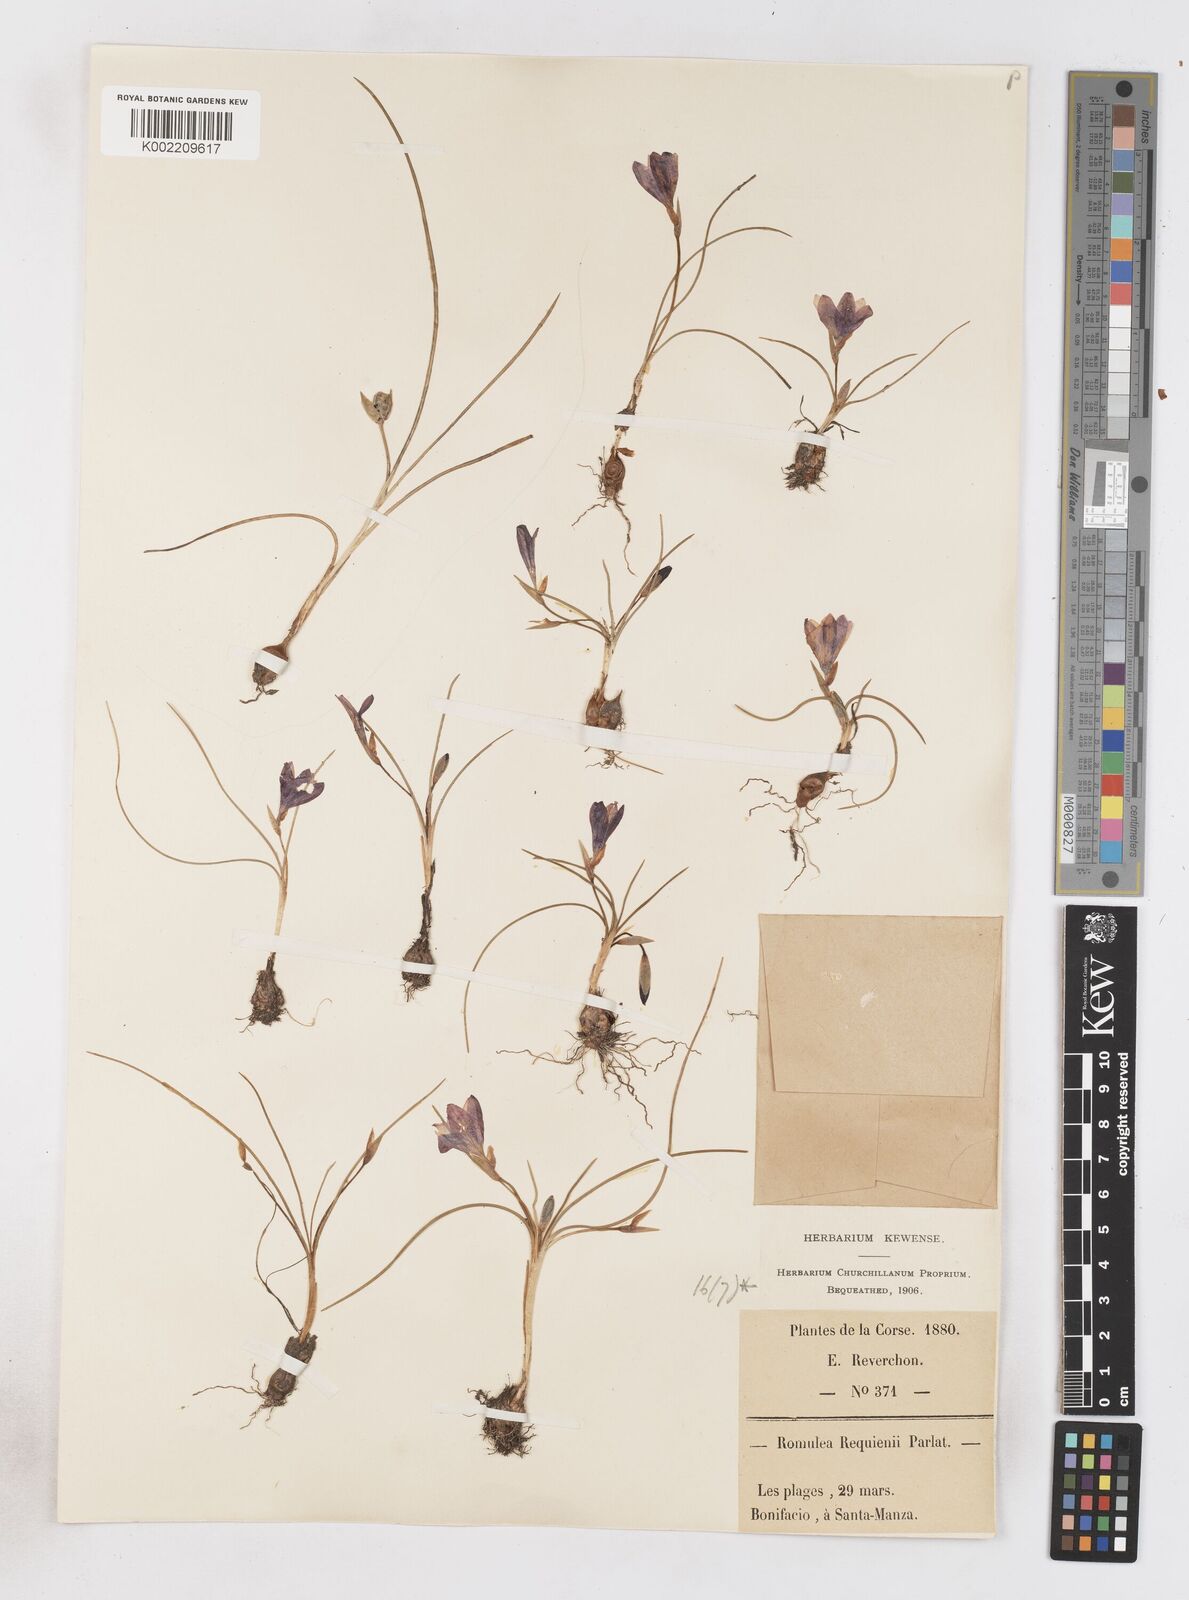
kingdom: Plantae
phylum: Tracheophyta
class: Liliopsida
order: Asparagales
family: Iridaceae
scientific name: Iridaceae
